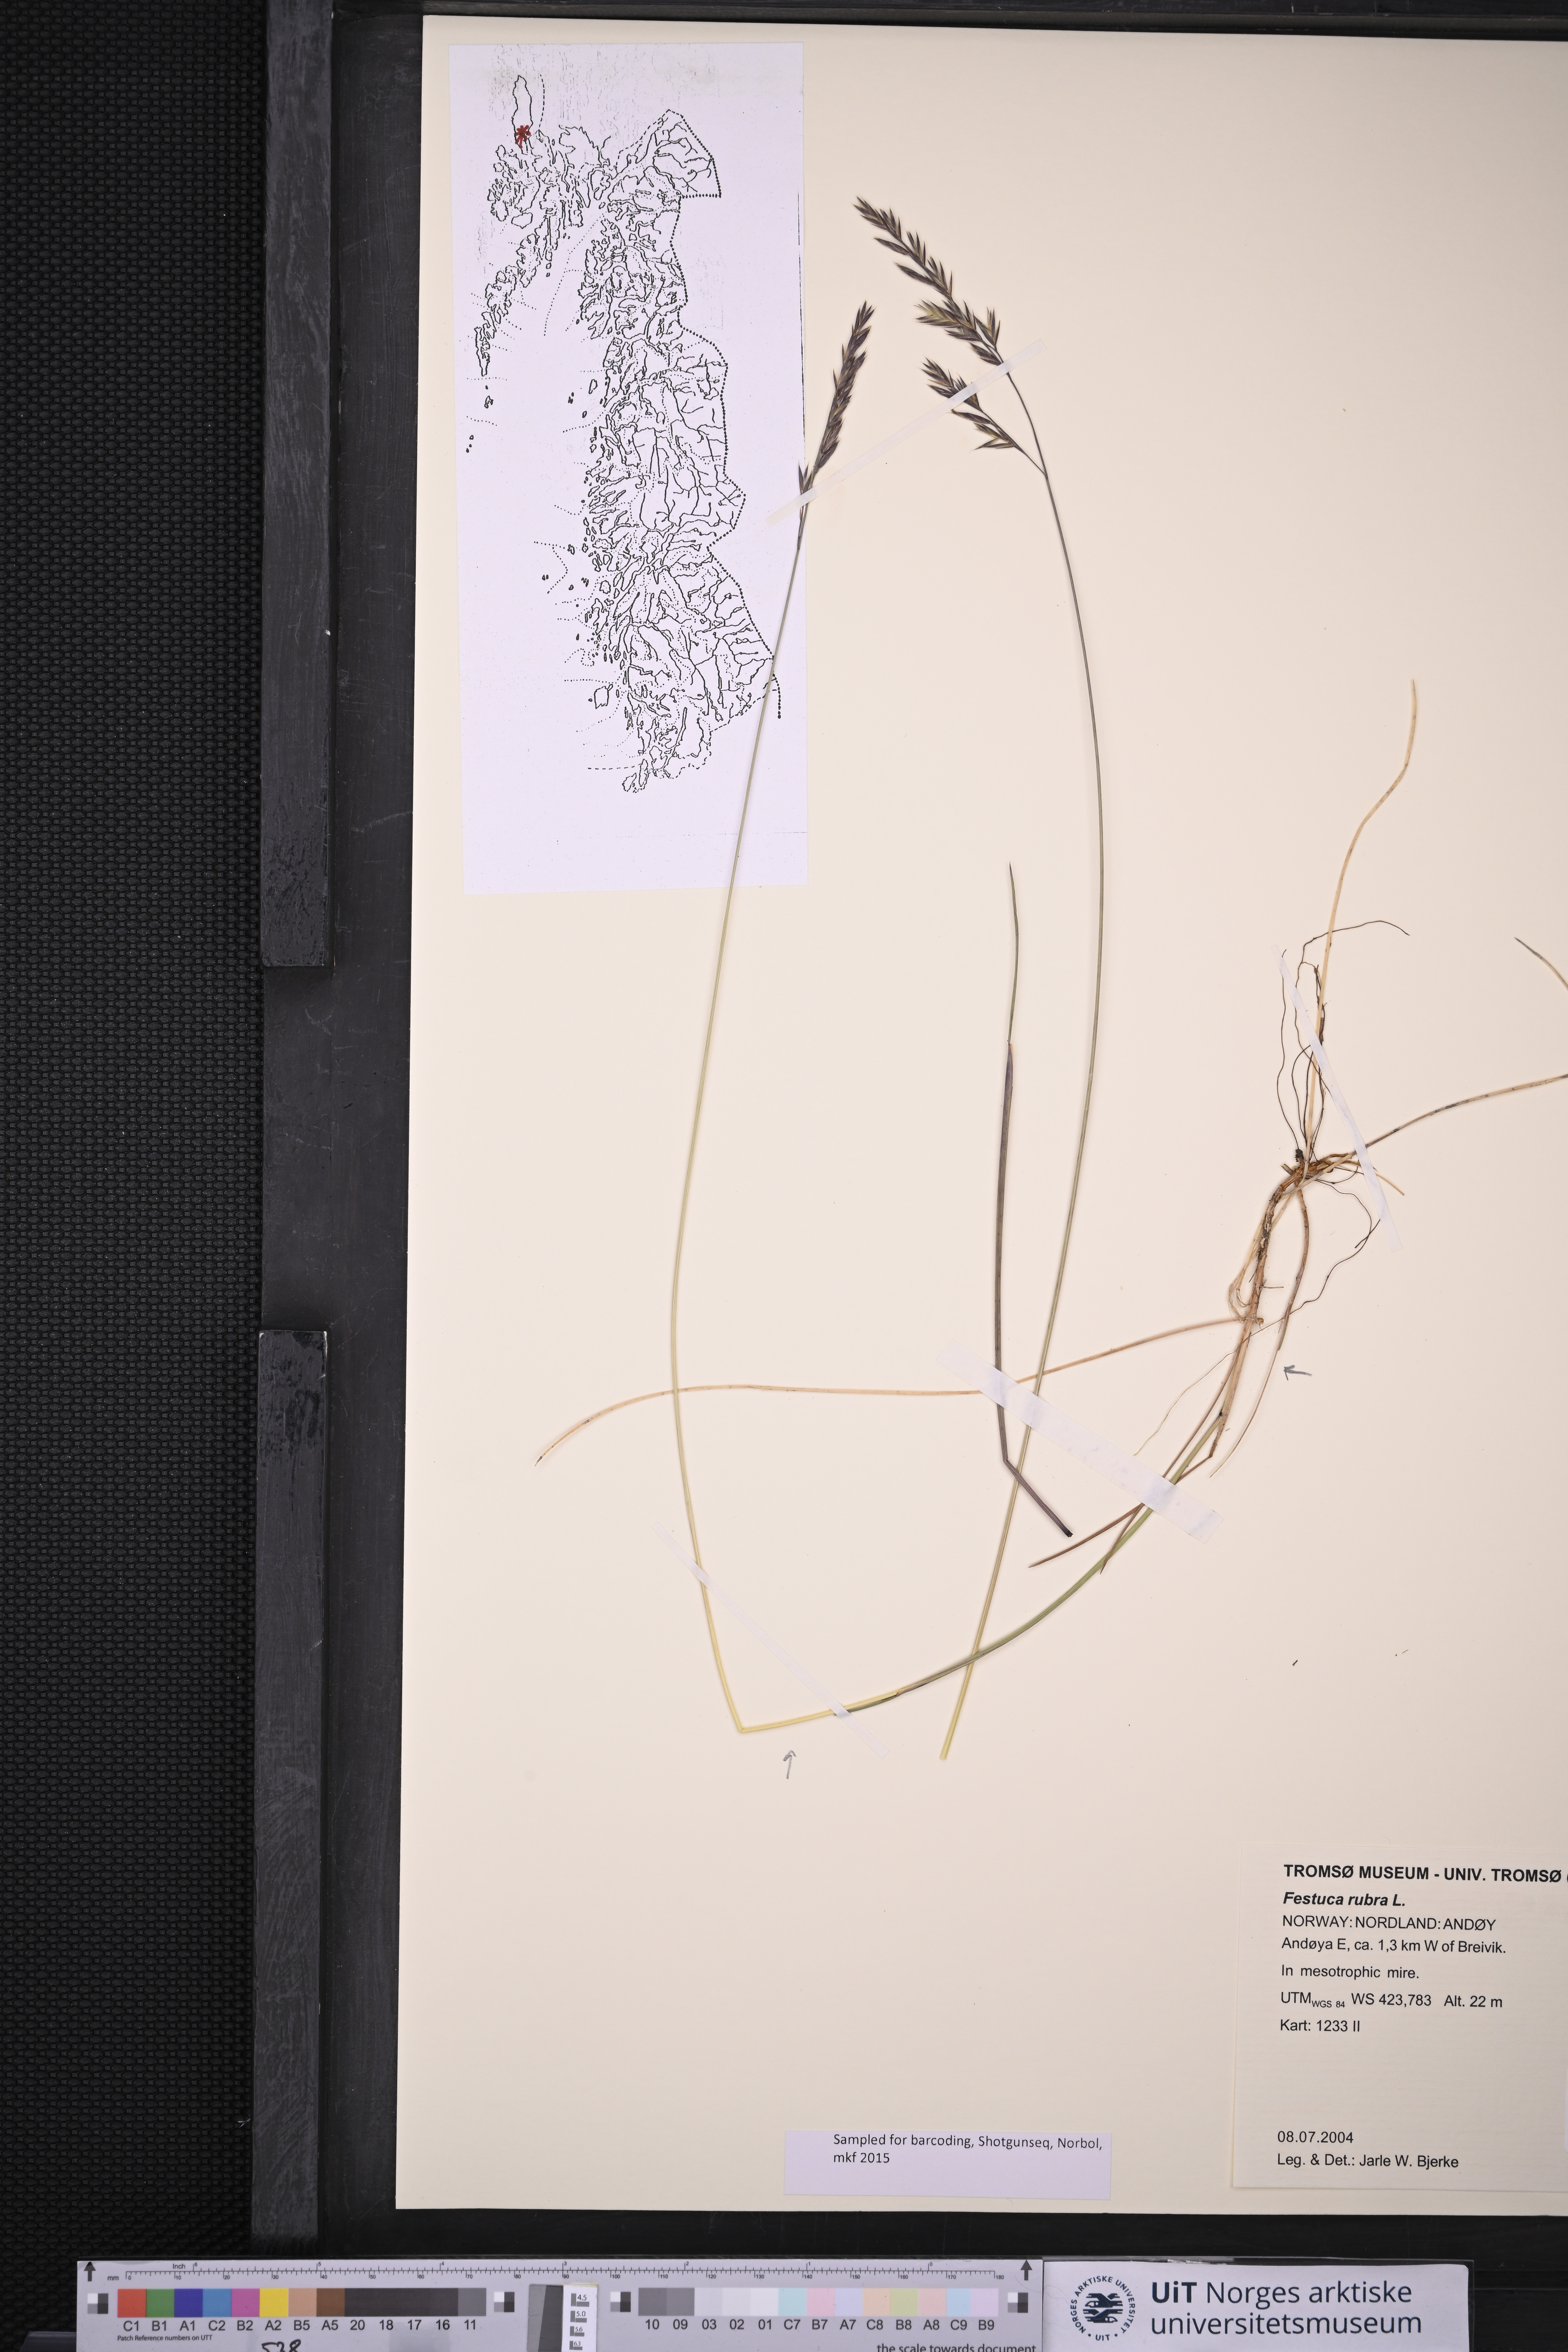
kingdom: Plantae
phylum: Tracheophyta
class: Liliopsida
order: Poales
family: Poaceae
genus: Festuca
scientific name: Festuca rubra
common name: Red fescue
